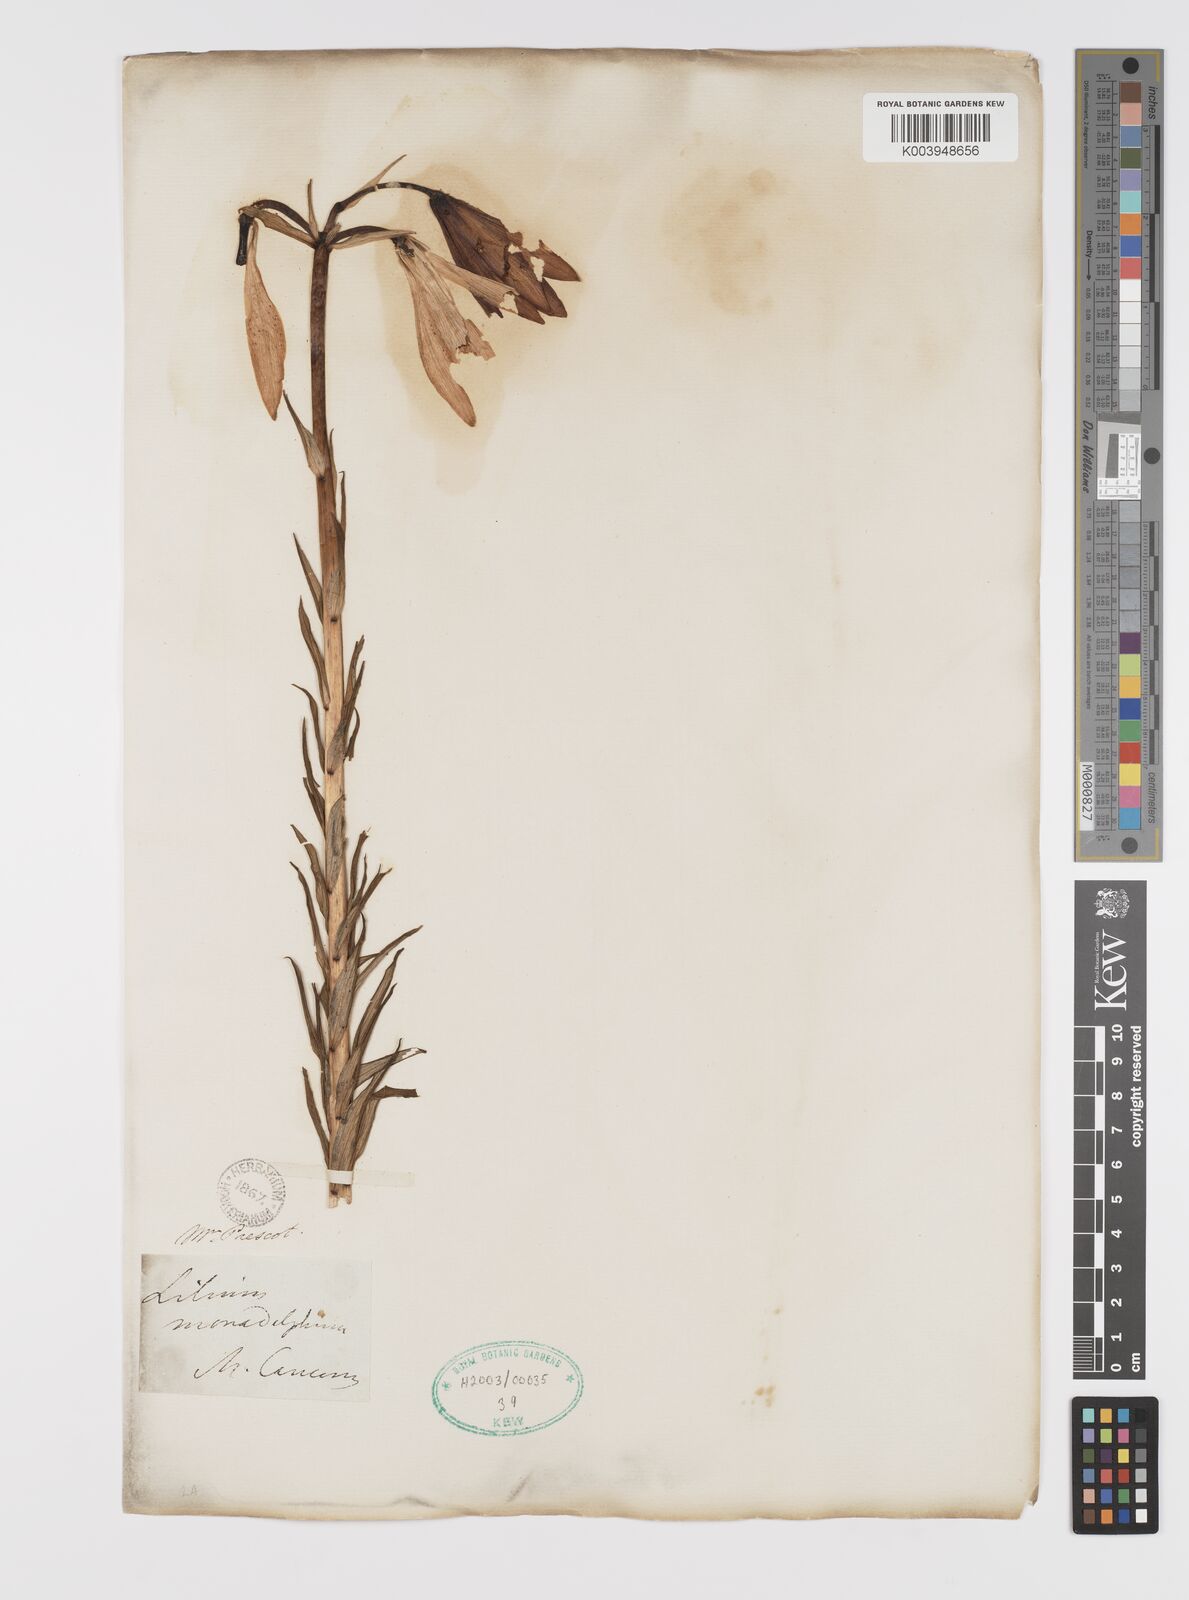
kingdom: Plantae
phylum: Tracheophyta
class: Liliopsida
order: Liliales
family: Liliaceae
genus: Lilium
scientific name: Lilium monadelphum
